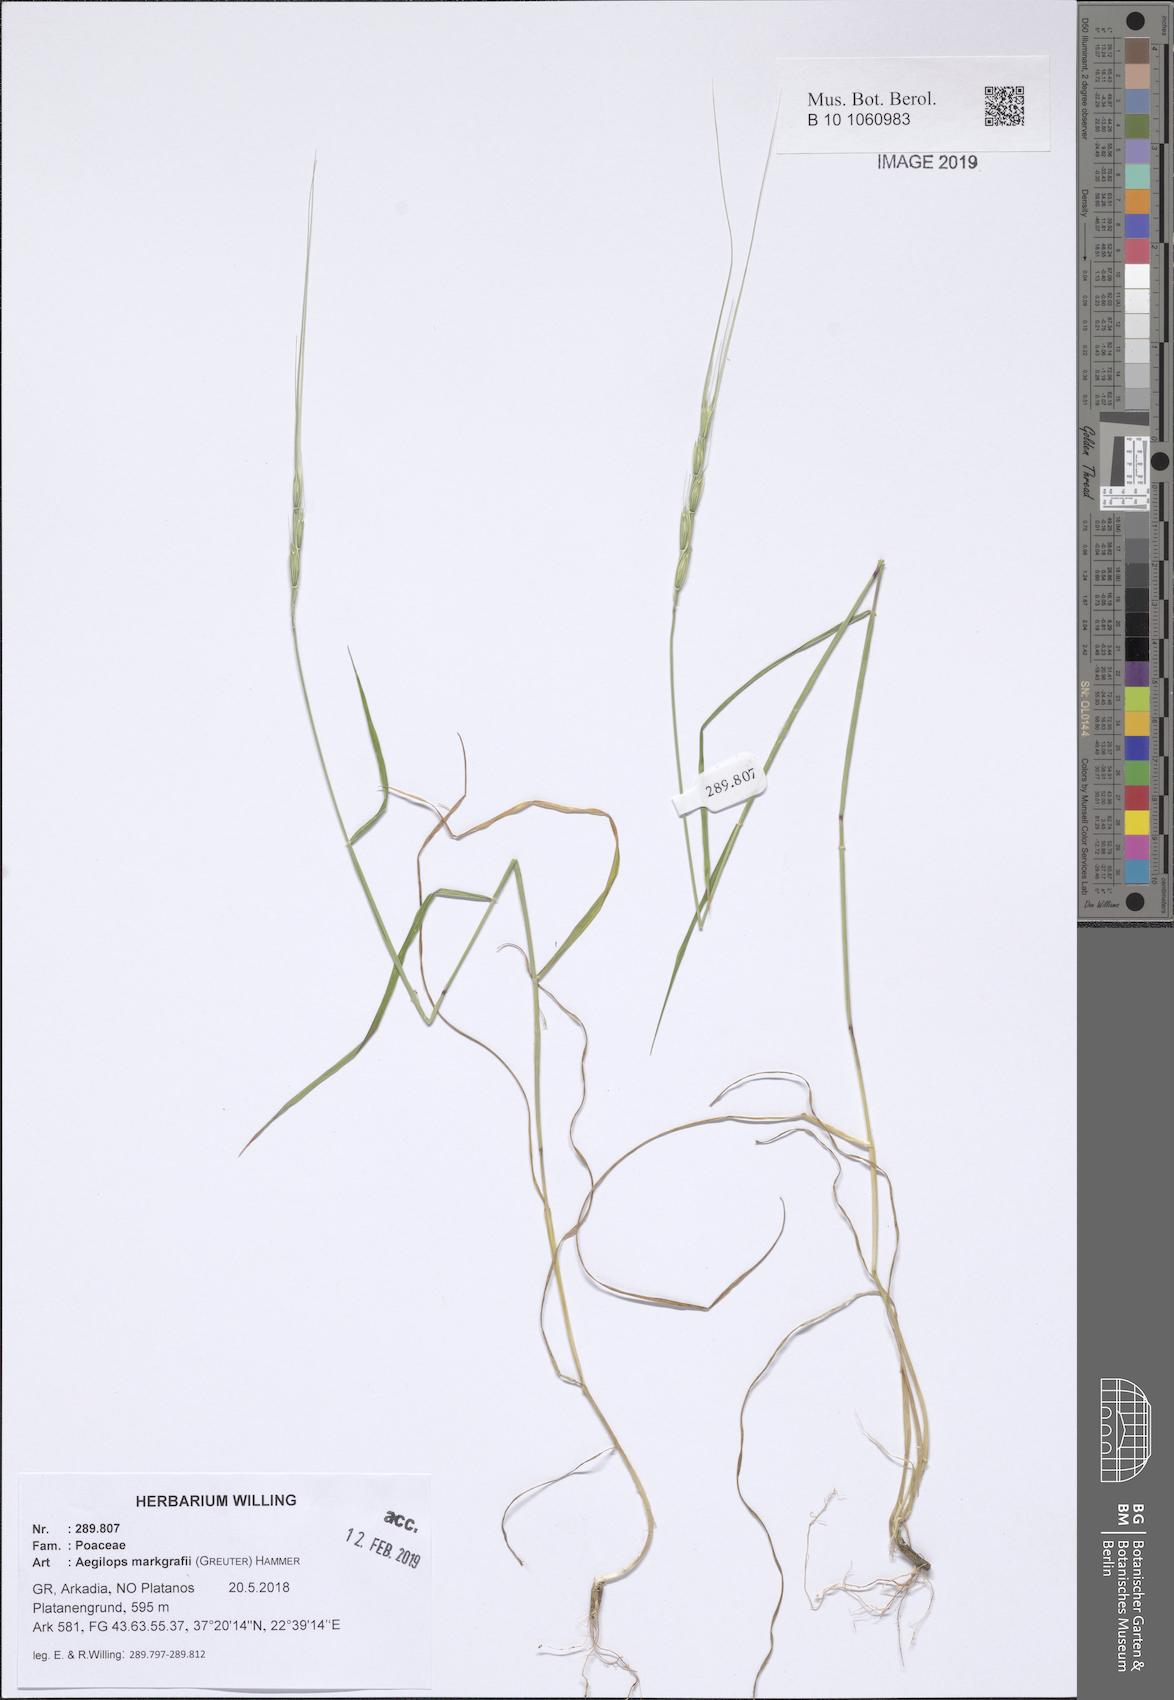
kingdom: Plantae
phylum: Tracheophyta
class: Liliopsida
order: Poales
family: Poaceae
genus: Aegilops
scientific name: Aegilops caudata
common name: Cretan hard-grass
